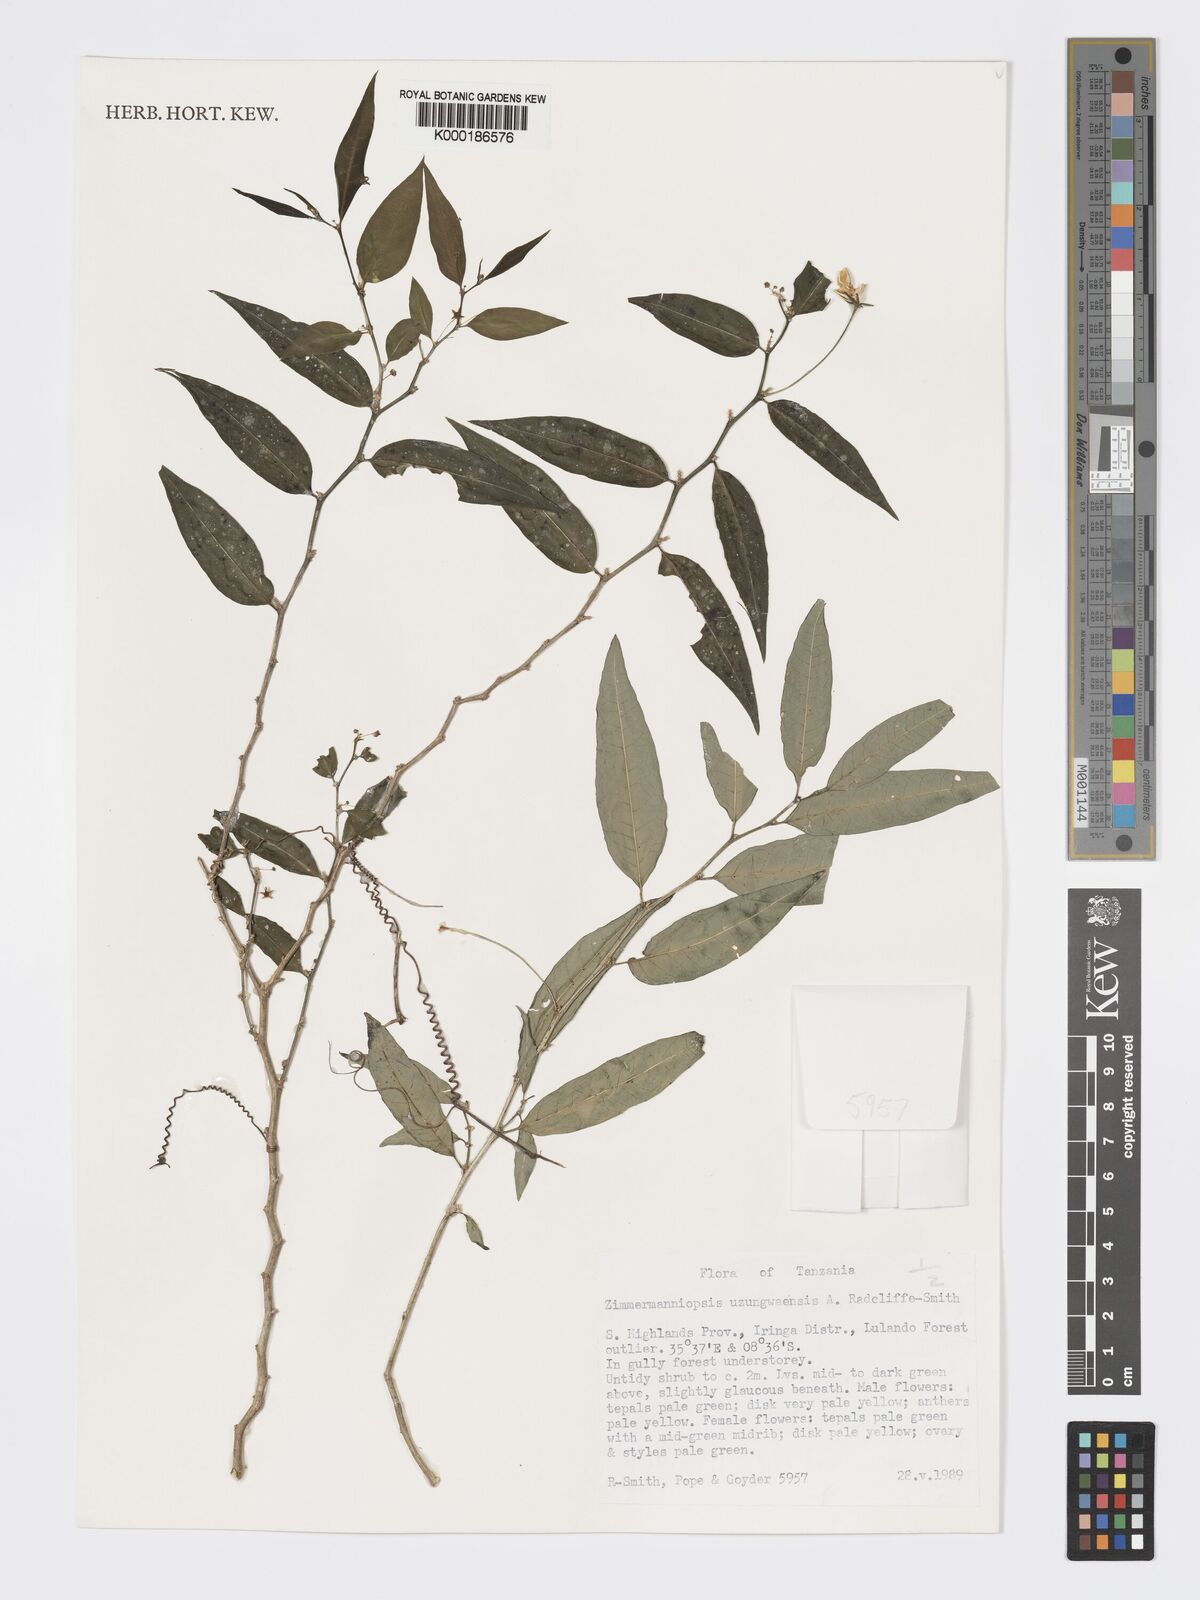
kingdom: Plantae
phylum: Tracheophyta
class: Magnoliopsida
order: Malpighiales
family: Phyllanthaceae
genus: Meineckia
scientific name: Meineckia uzungwaensis
